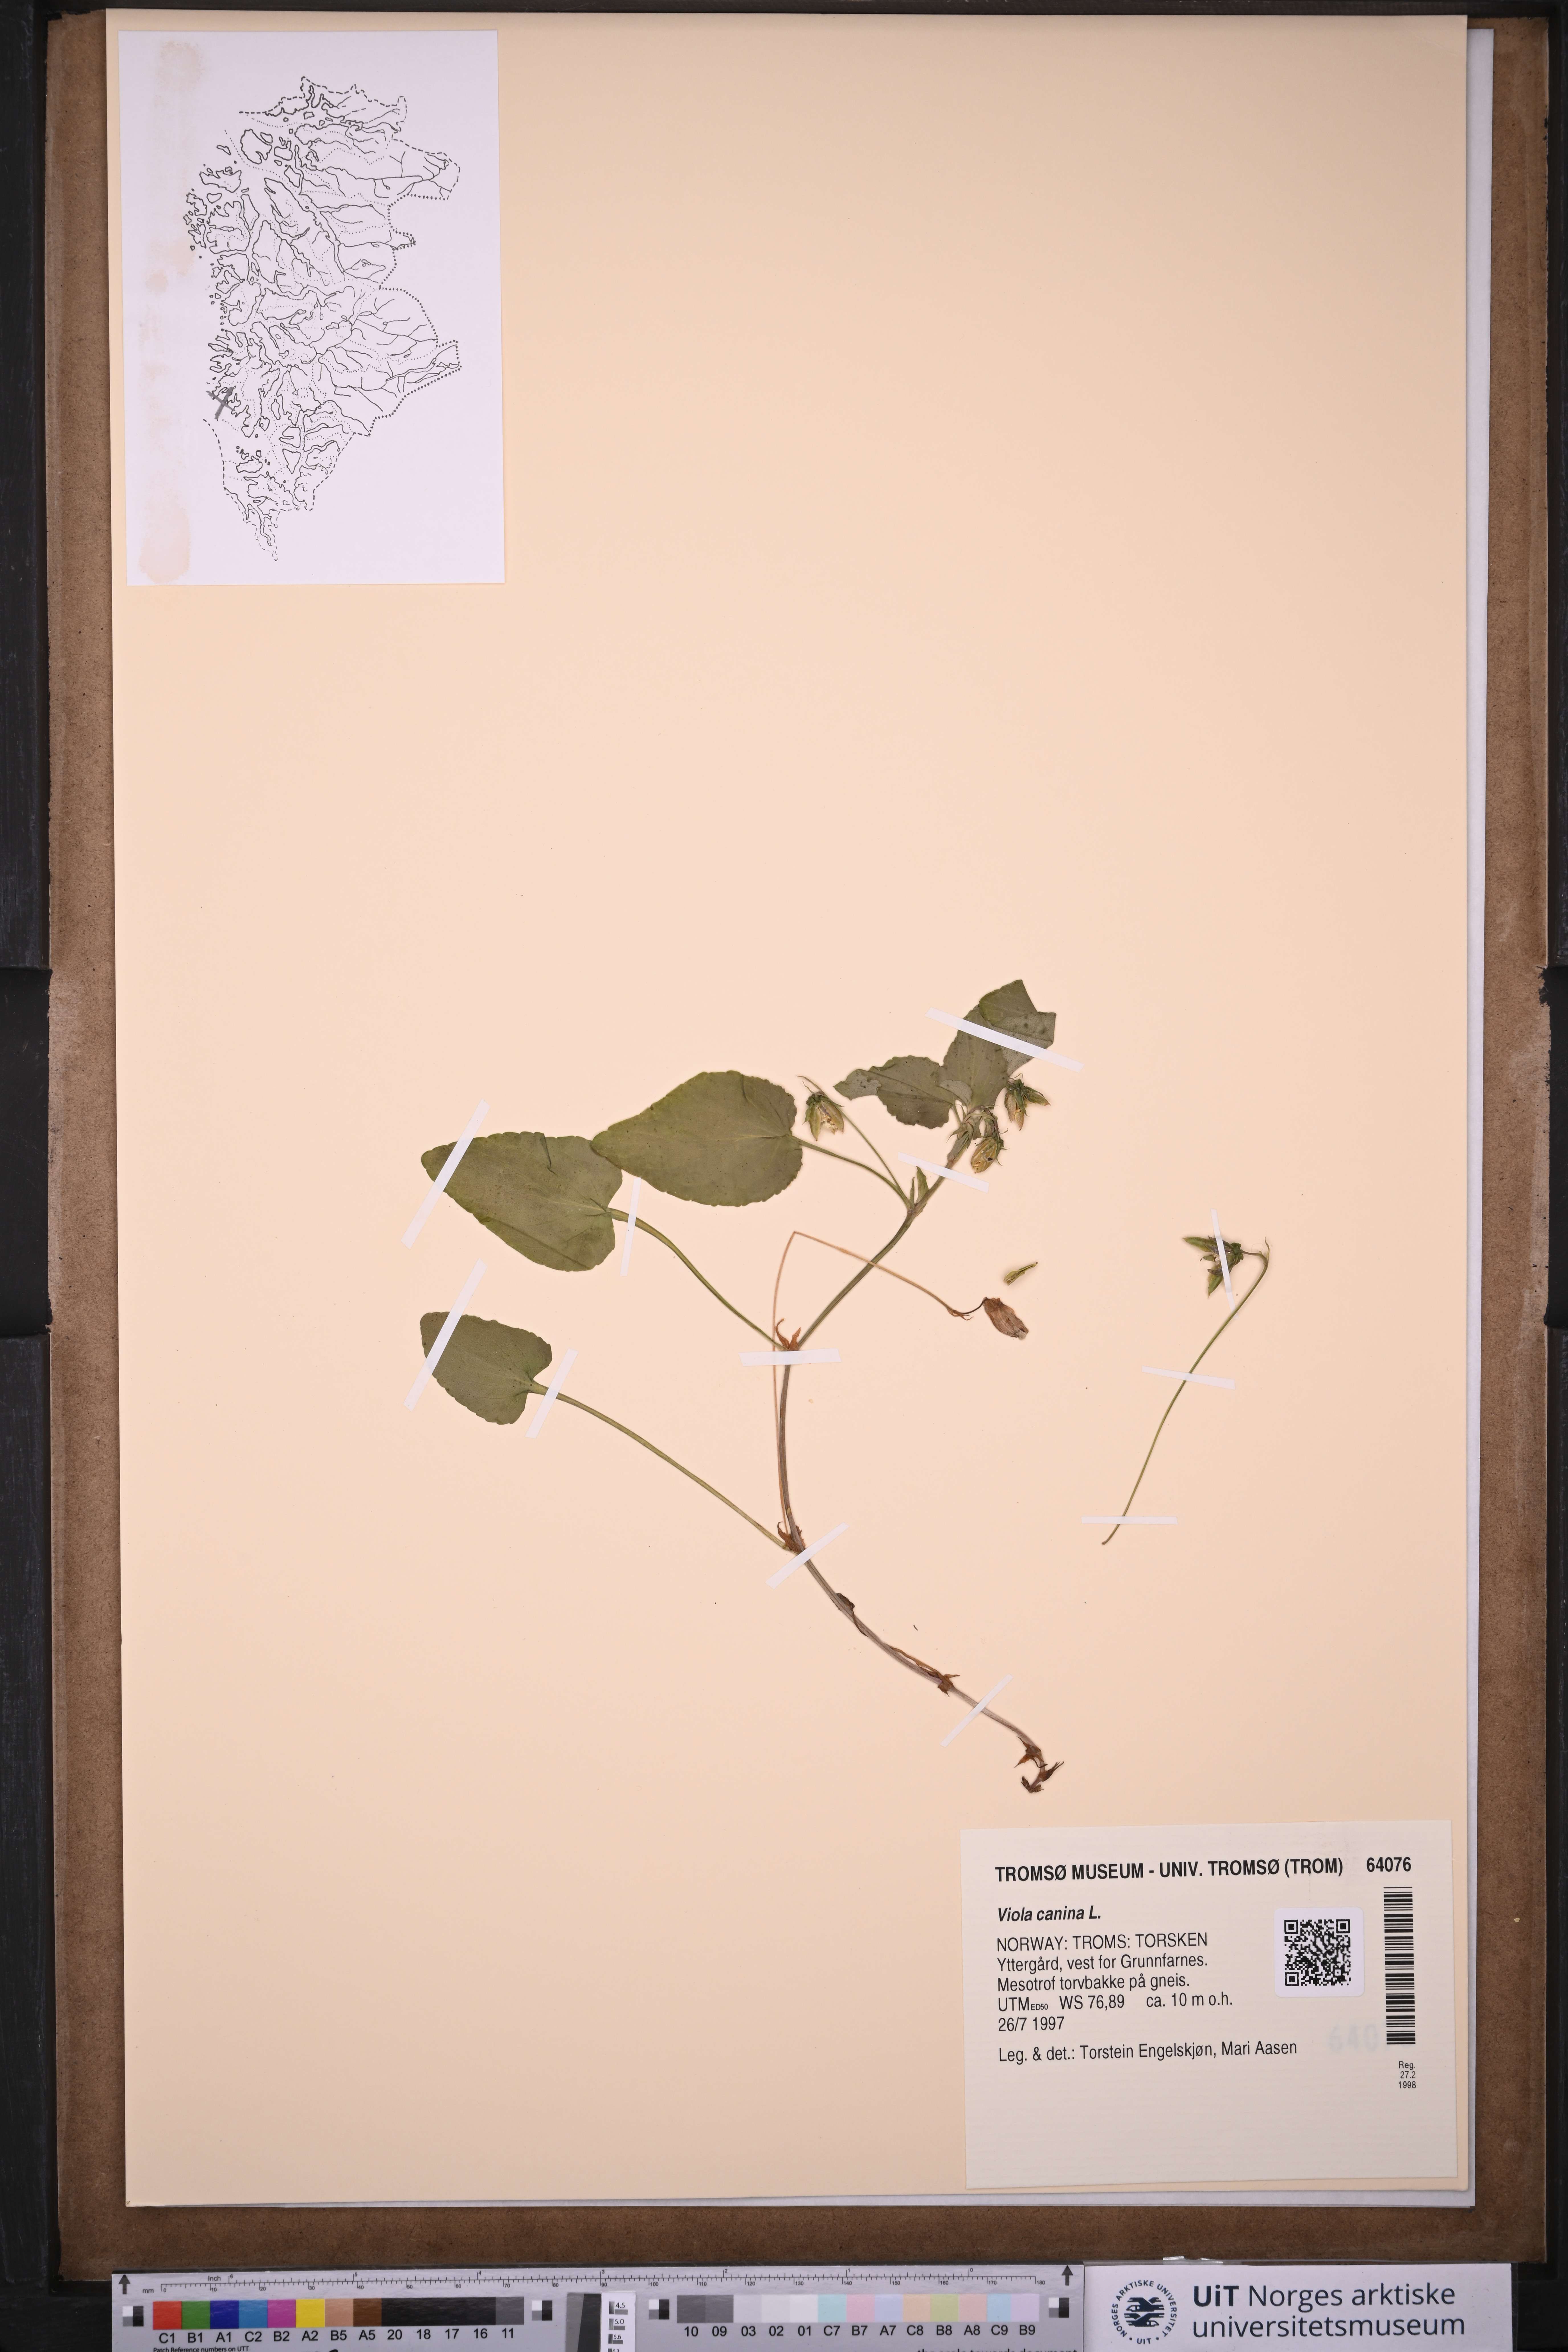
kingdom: Plantae
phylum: Tracheophyta
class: Magnoliopsida
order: Malpighiales
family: Violaceae
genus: Viola
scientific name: Viola canina
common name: Heath dog-violet
